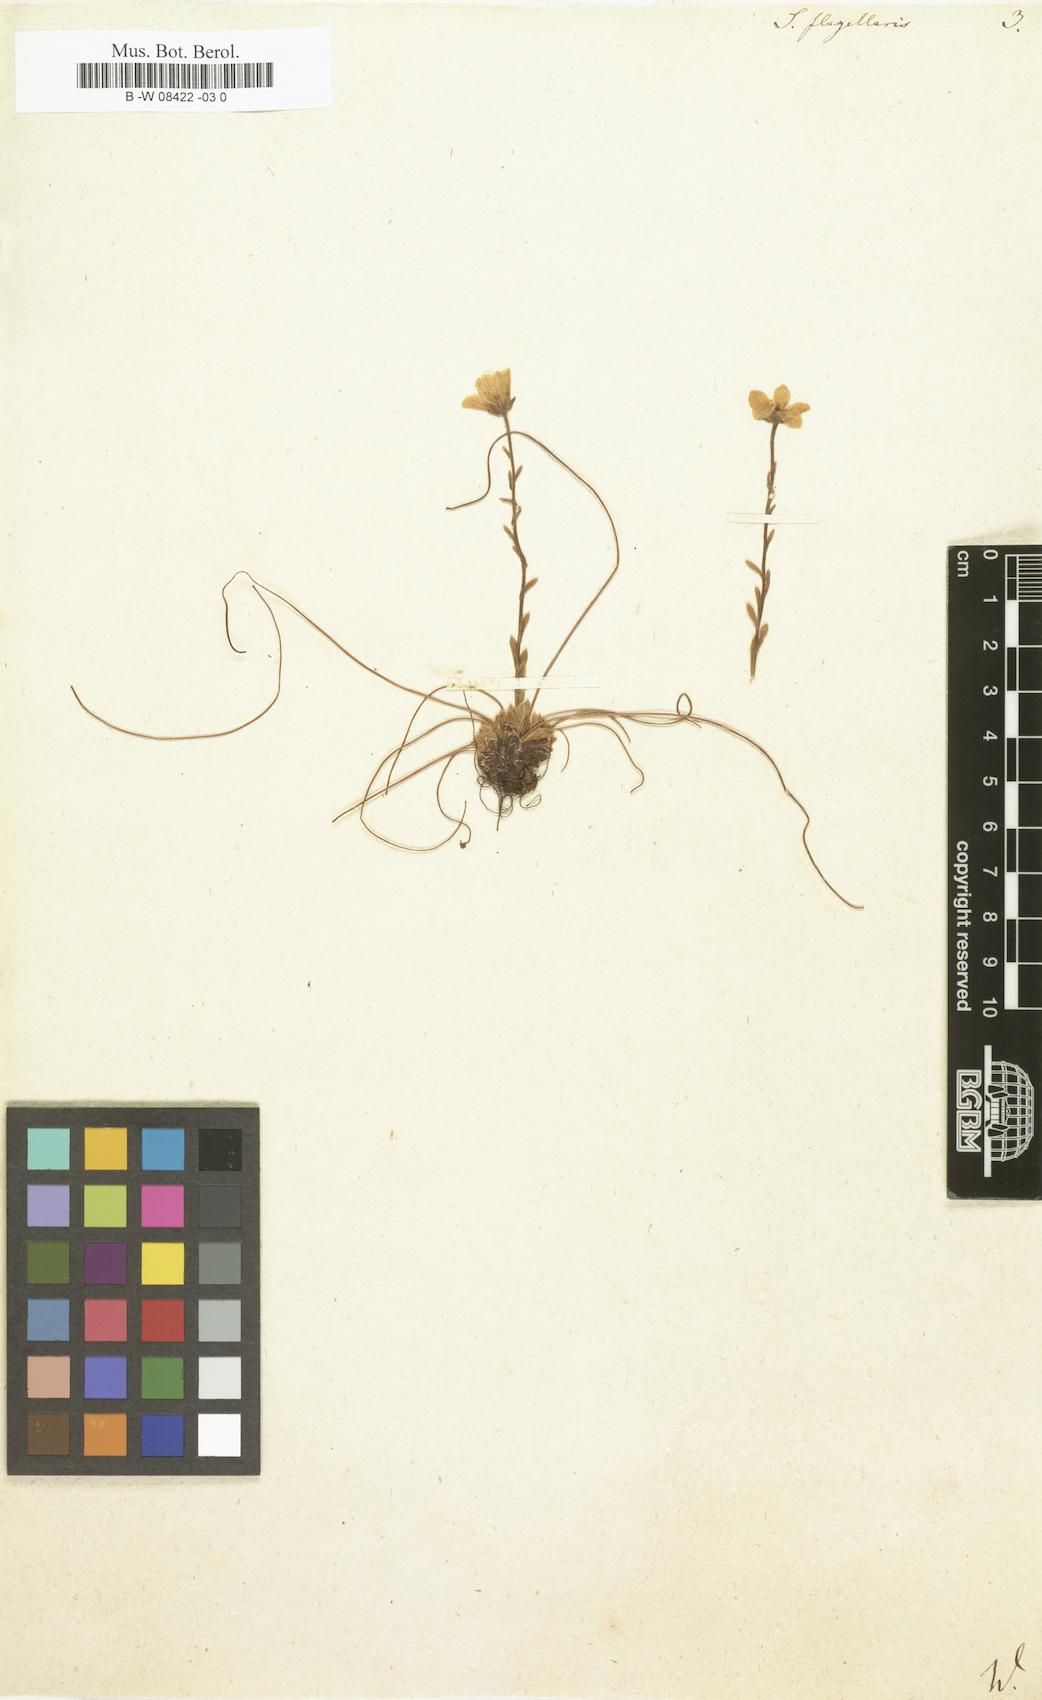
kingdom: Plantae
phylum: Tracheophyta
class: Magnoliopsida
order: Saxifragales
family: Saxifragaceae
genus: Saxifraga
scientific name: Saxifraga flagellaris
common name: Spider saxifrage
